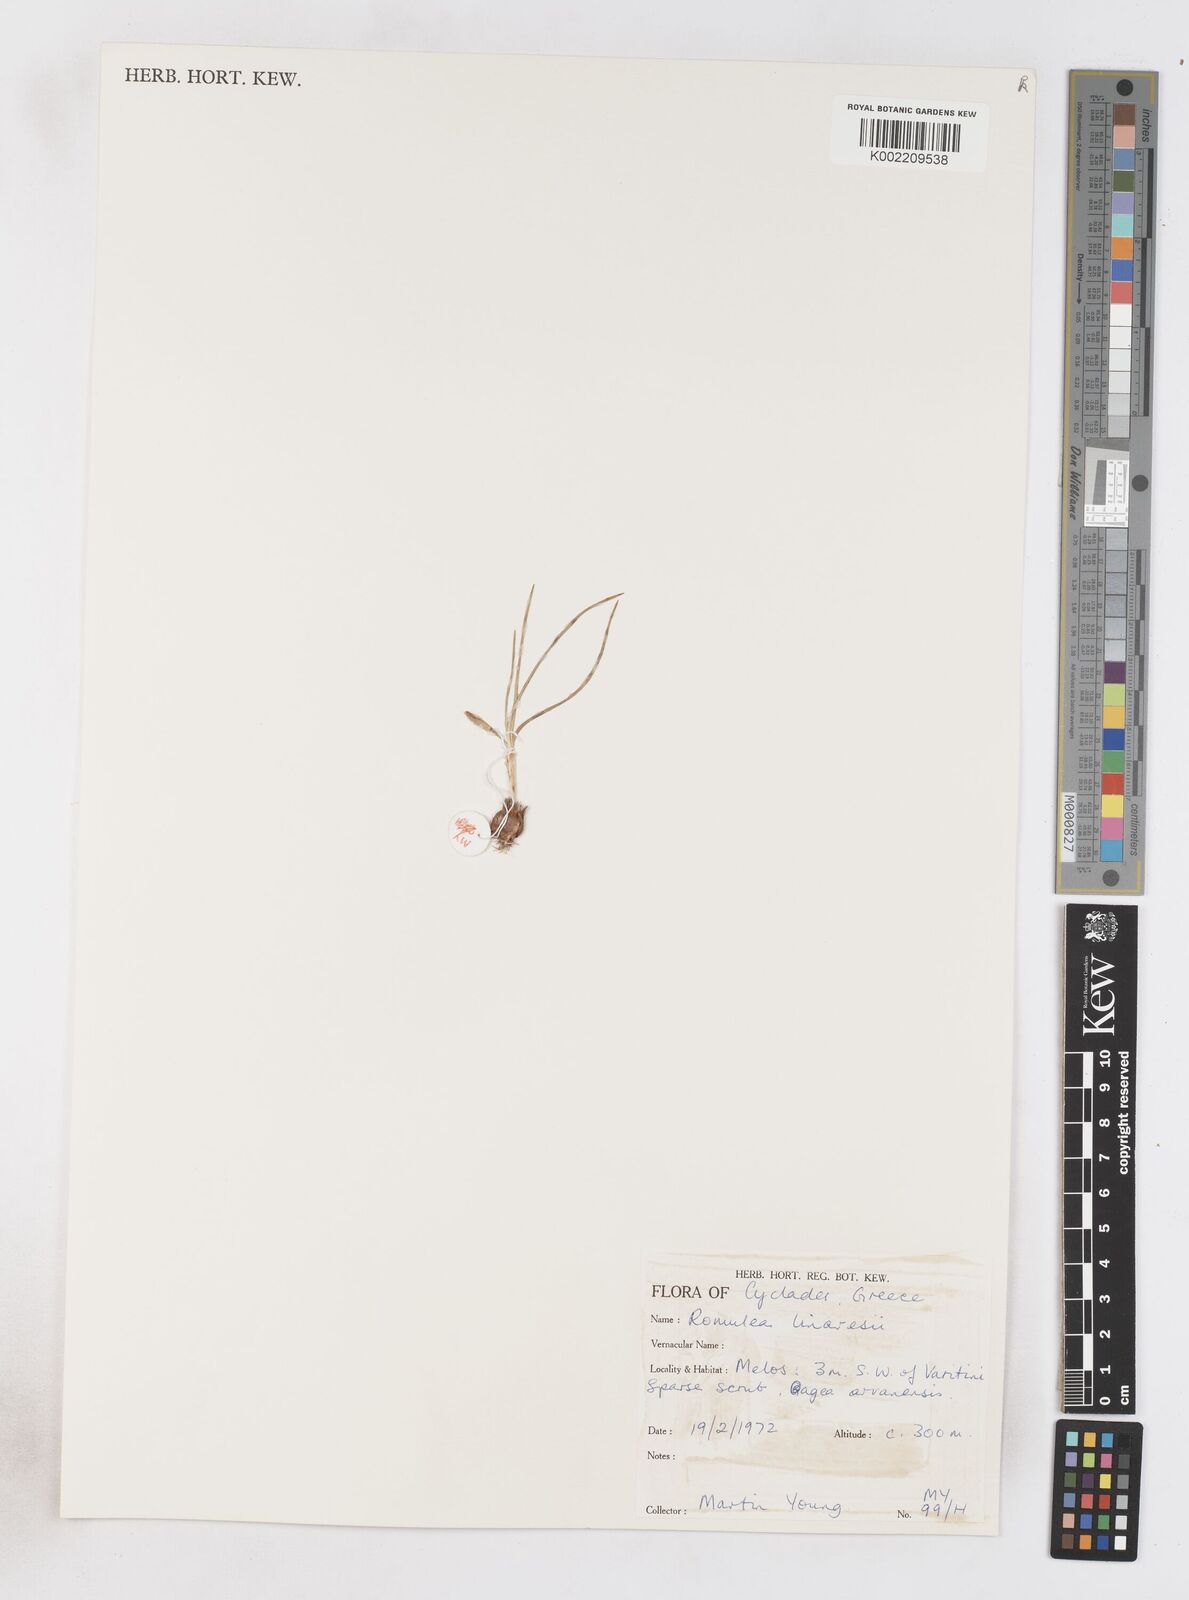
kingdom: Plantae
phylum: Tracheophyta
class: Liliopsida
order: Asparagales
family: Iridaceae
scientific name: Iridaceae
